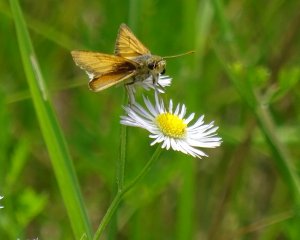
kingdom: Animalia
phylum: Arthropoda
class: Insecta
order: Lepidoptera
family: Hesperiidae
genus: Atrytone
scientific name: Atrytone delaware
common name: Delaware Skipper
